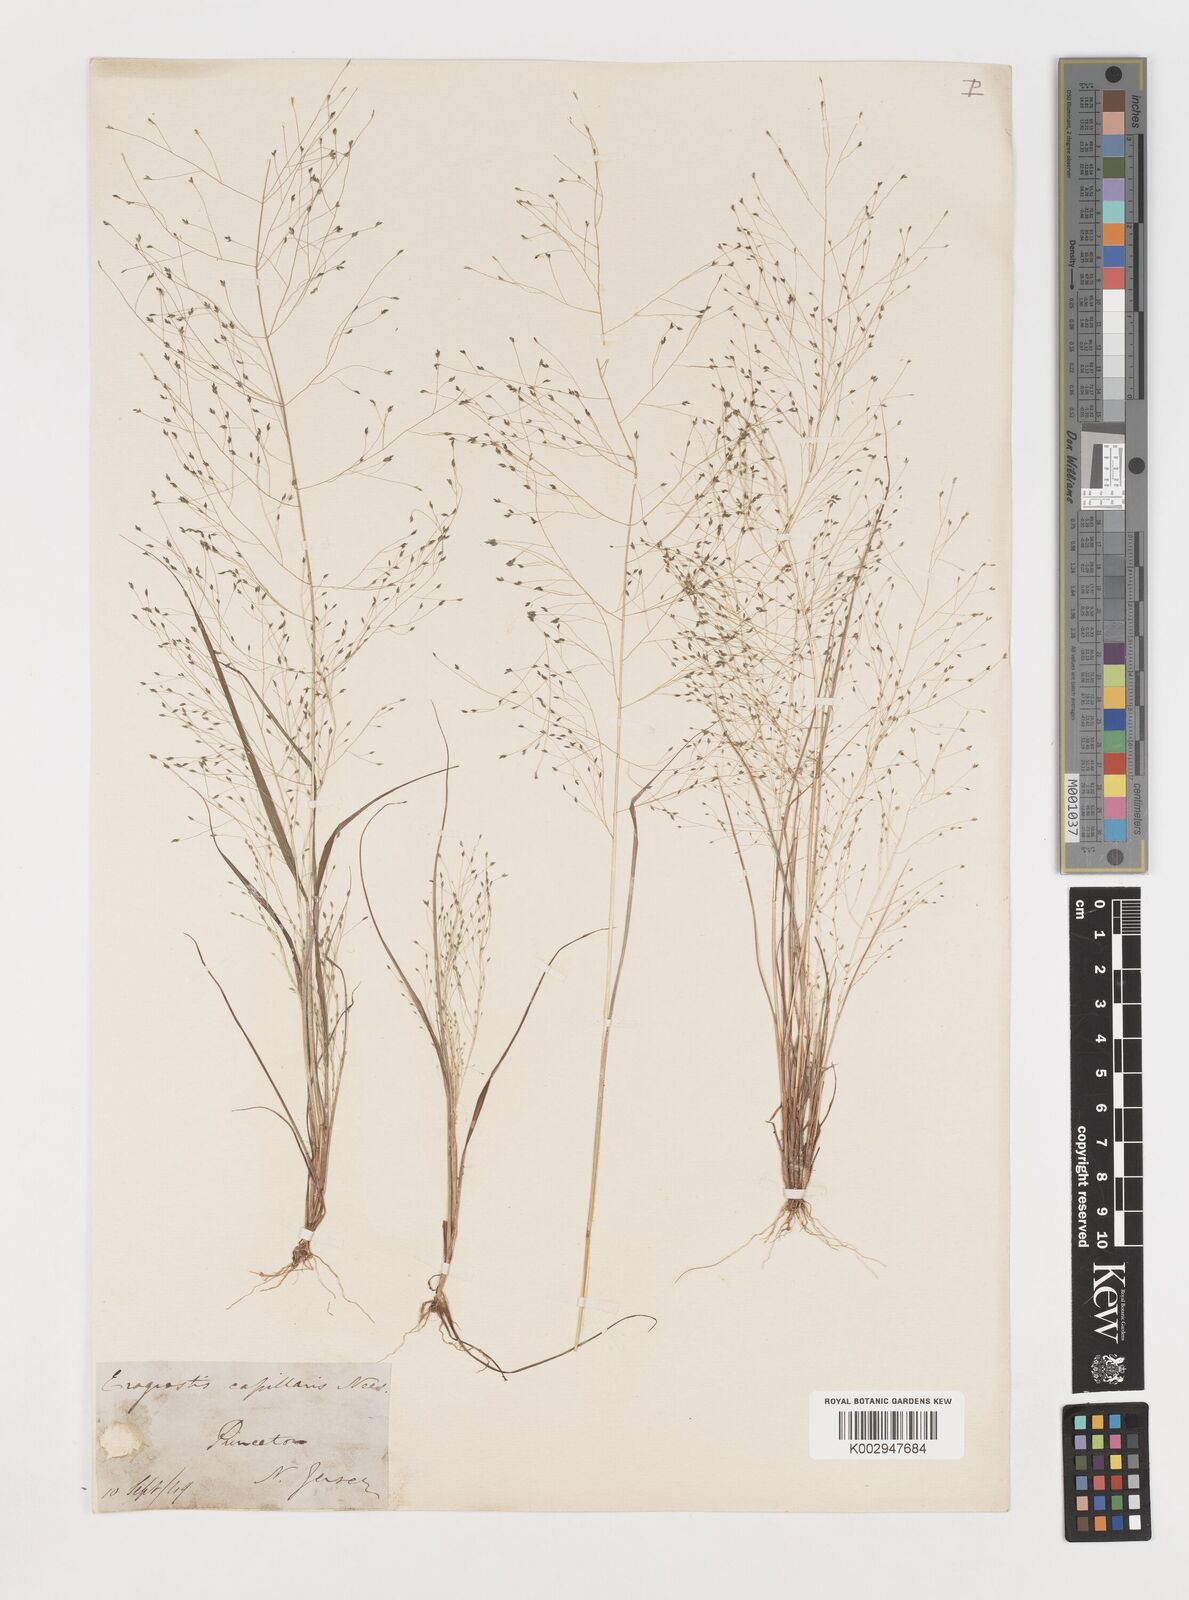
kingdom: Plantae
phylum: Tracheophyta
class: Liliopsida
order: Poales
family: Poaceae
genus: Eragrostis
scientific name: Eragrostis capillaris
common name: Hair-like lovegrass
